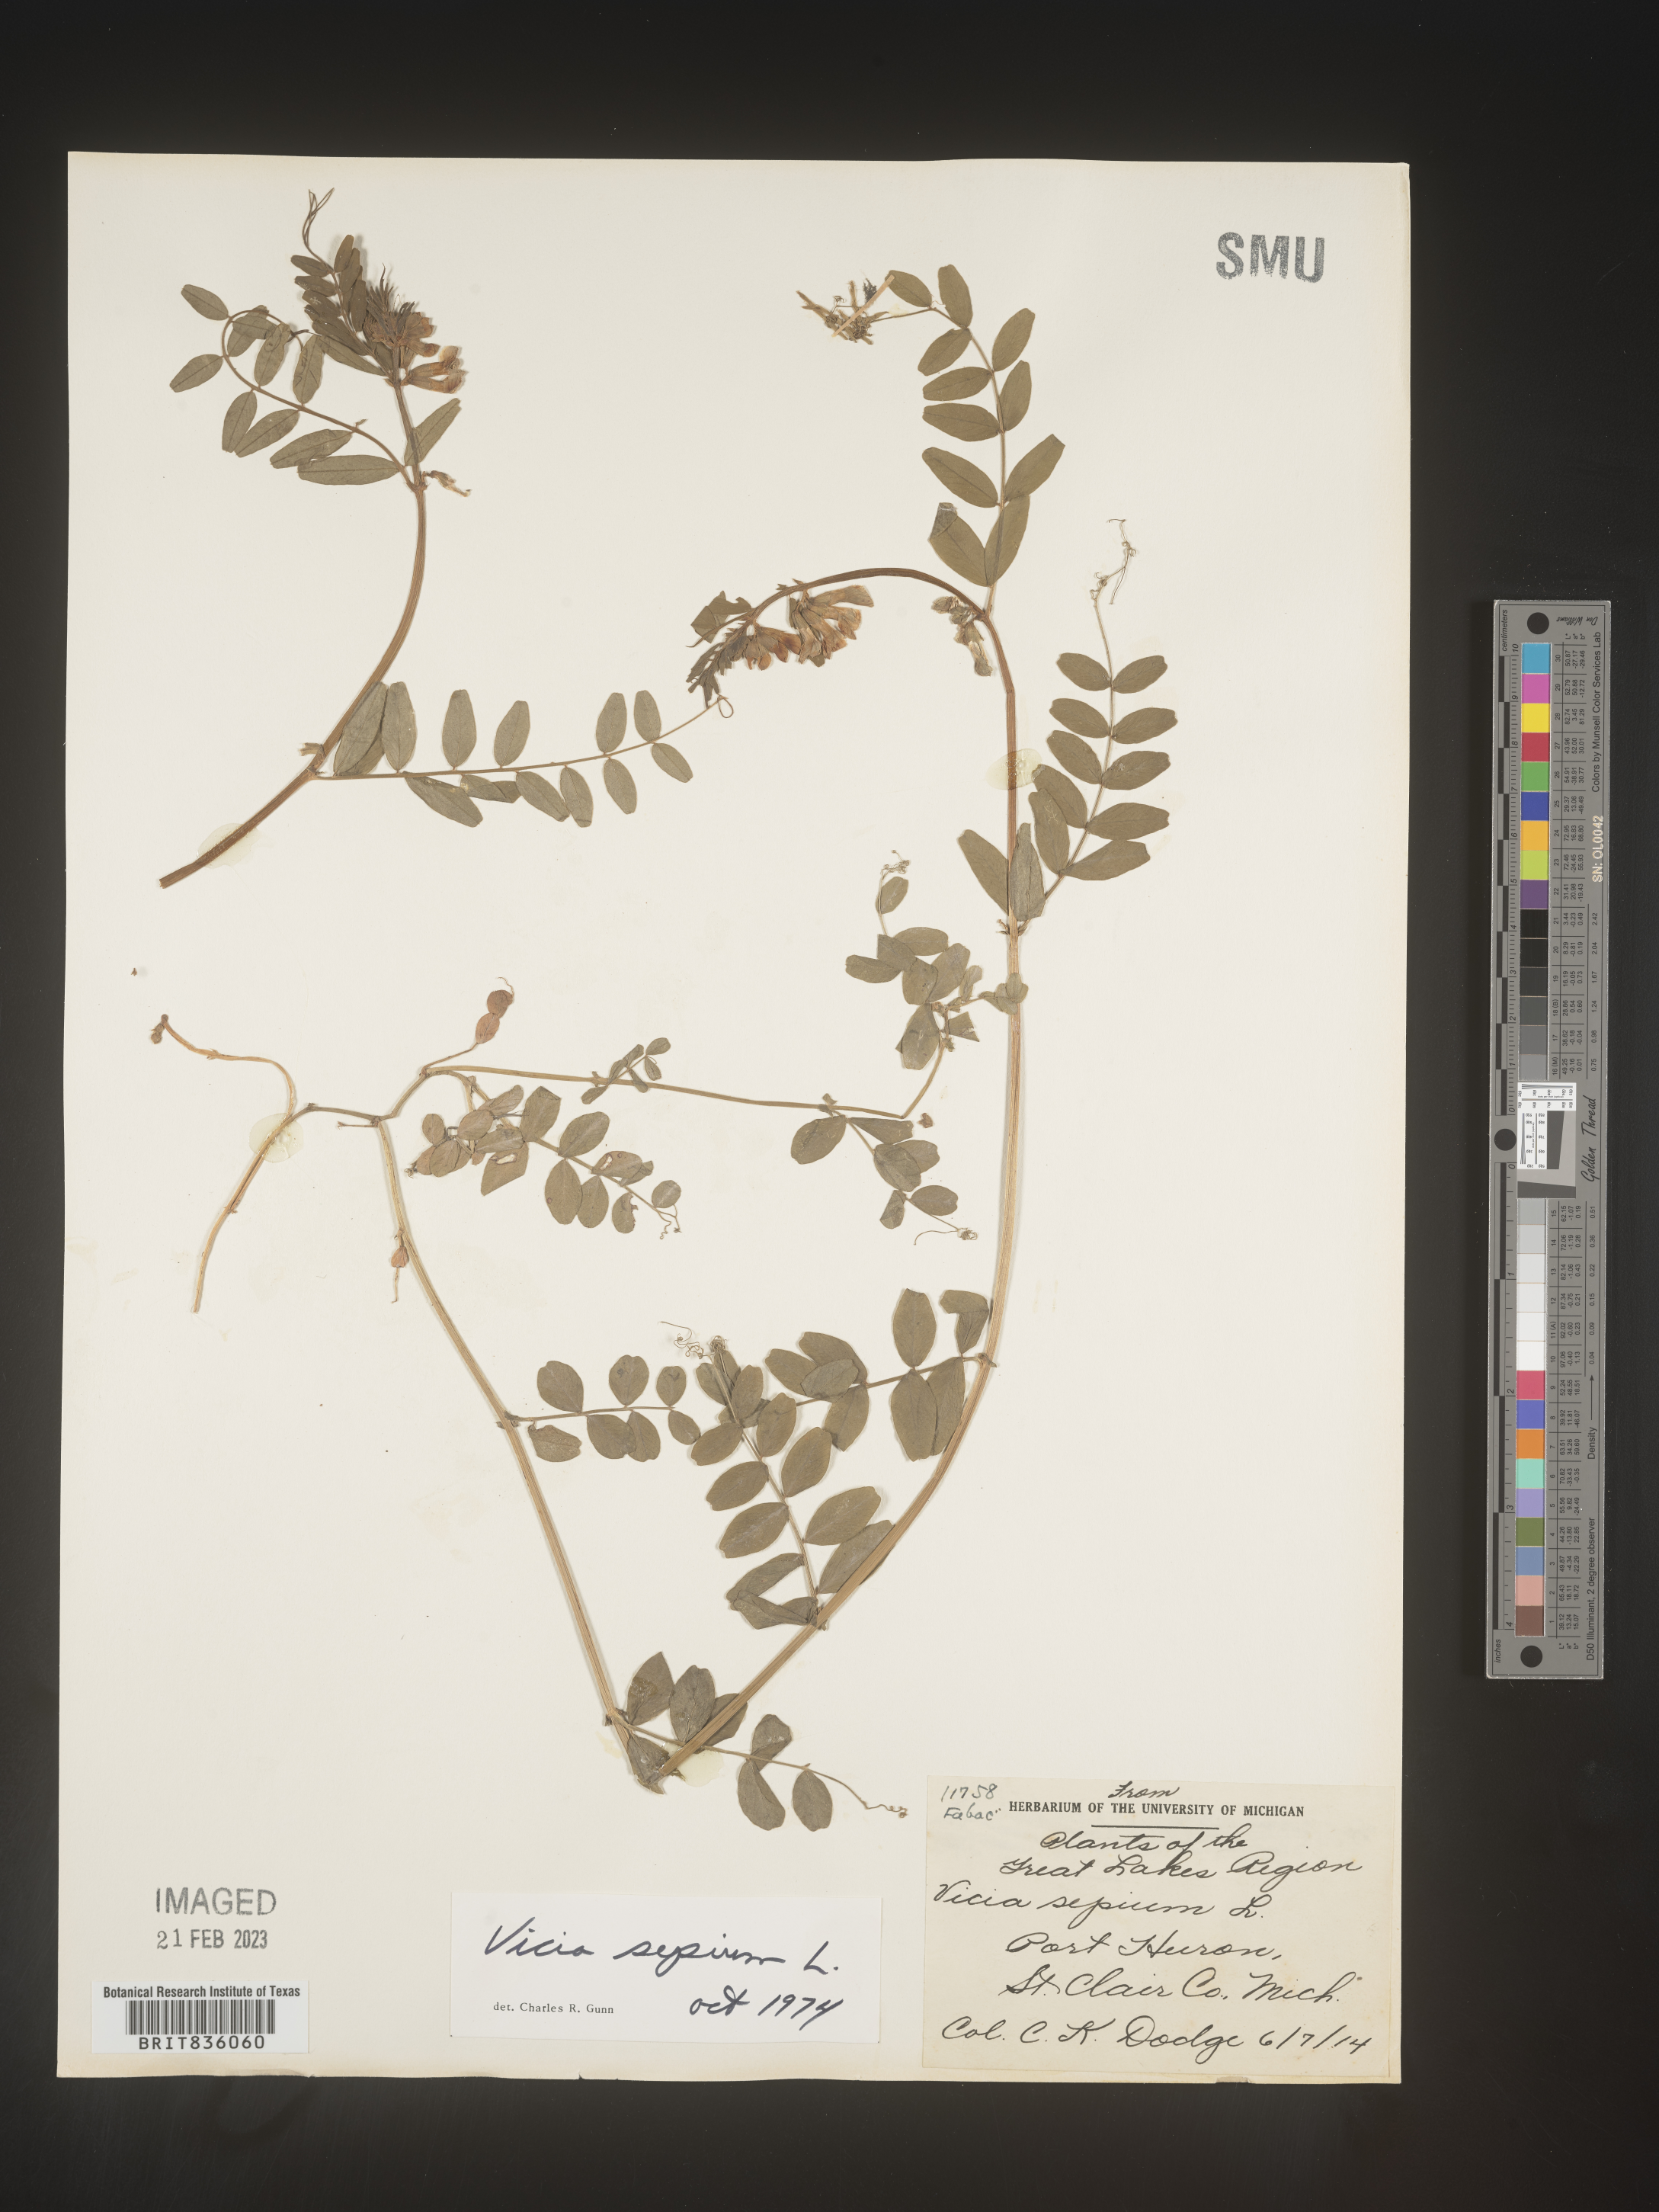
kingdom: Plantae
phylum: Tracheophyta
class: Magnoliopsida
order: Fabales
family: Fabaceae
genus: Vicia
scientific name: Vicia
